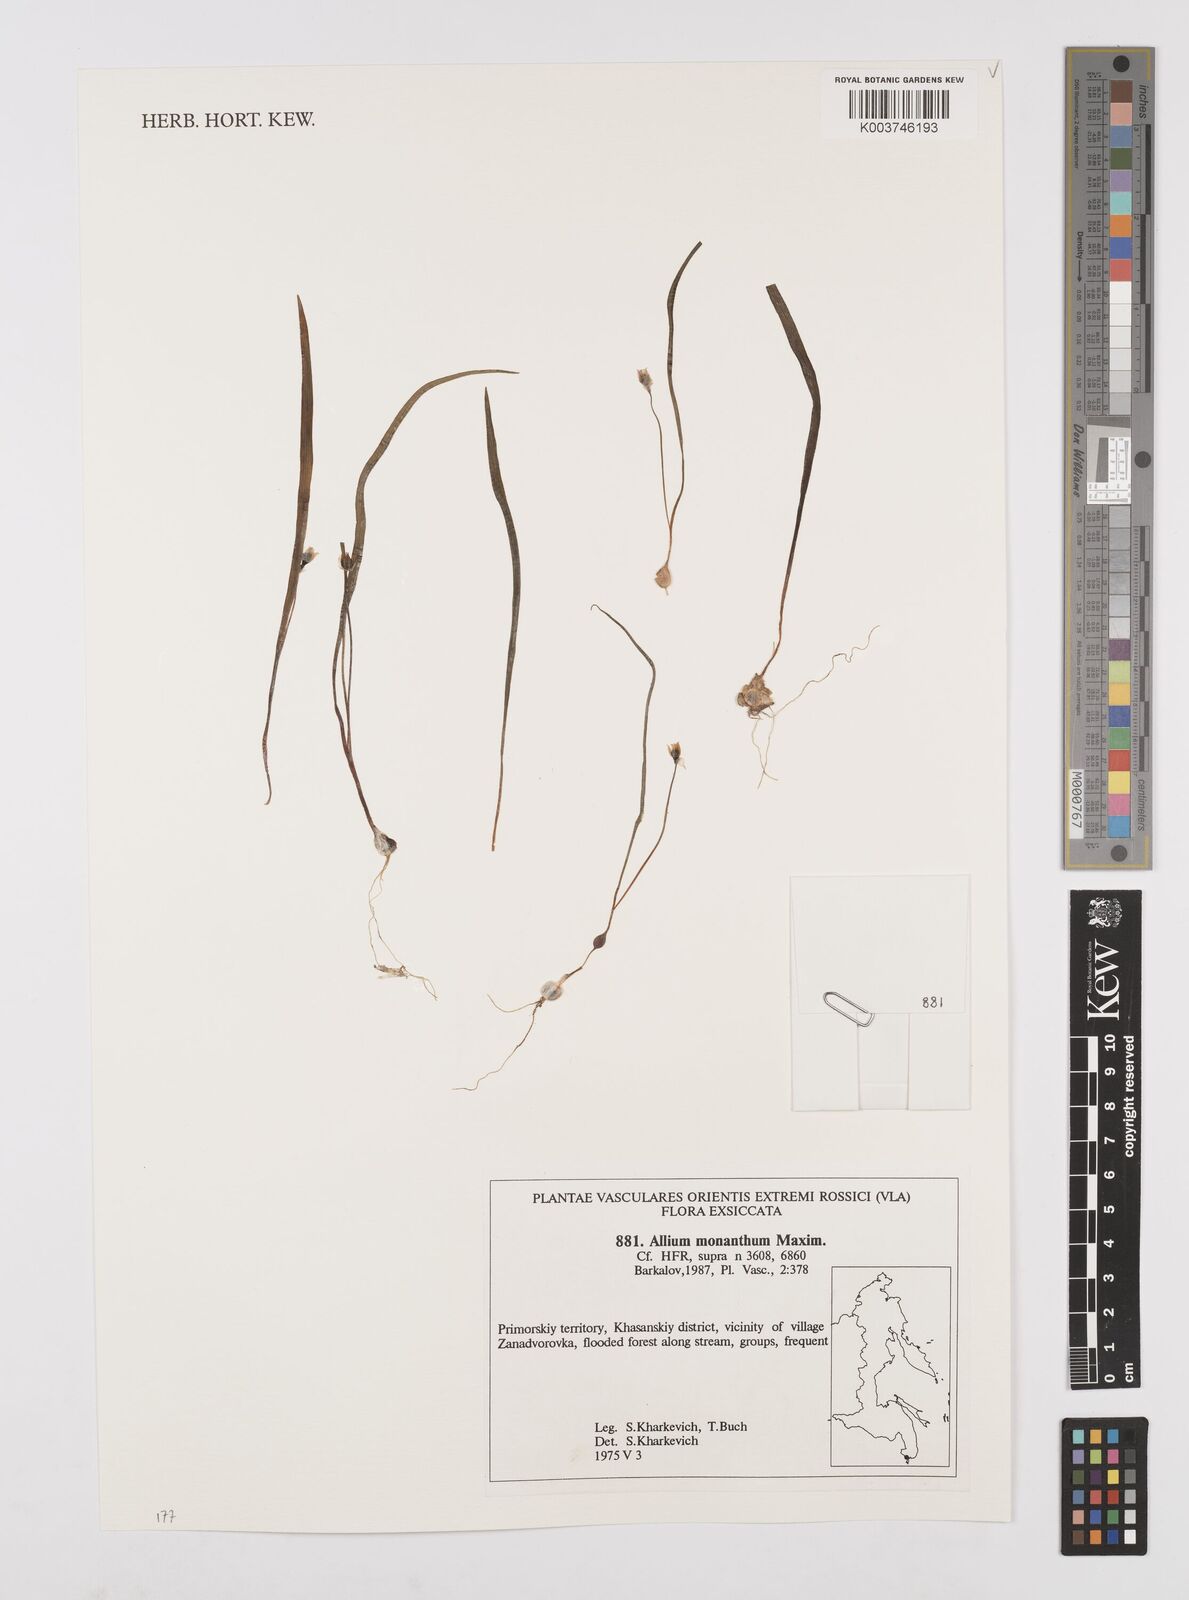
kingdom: Plantae
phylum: Tracheophyta
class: Liliopsida
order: Asparagales
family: Amaryllidaceae
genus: Allium
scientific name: Allium monanthum
